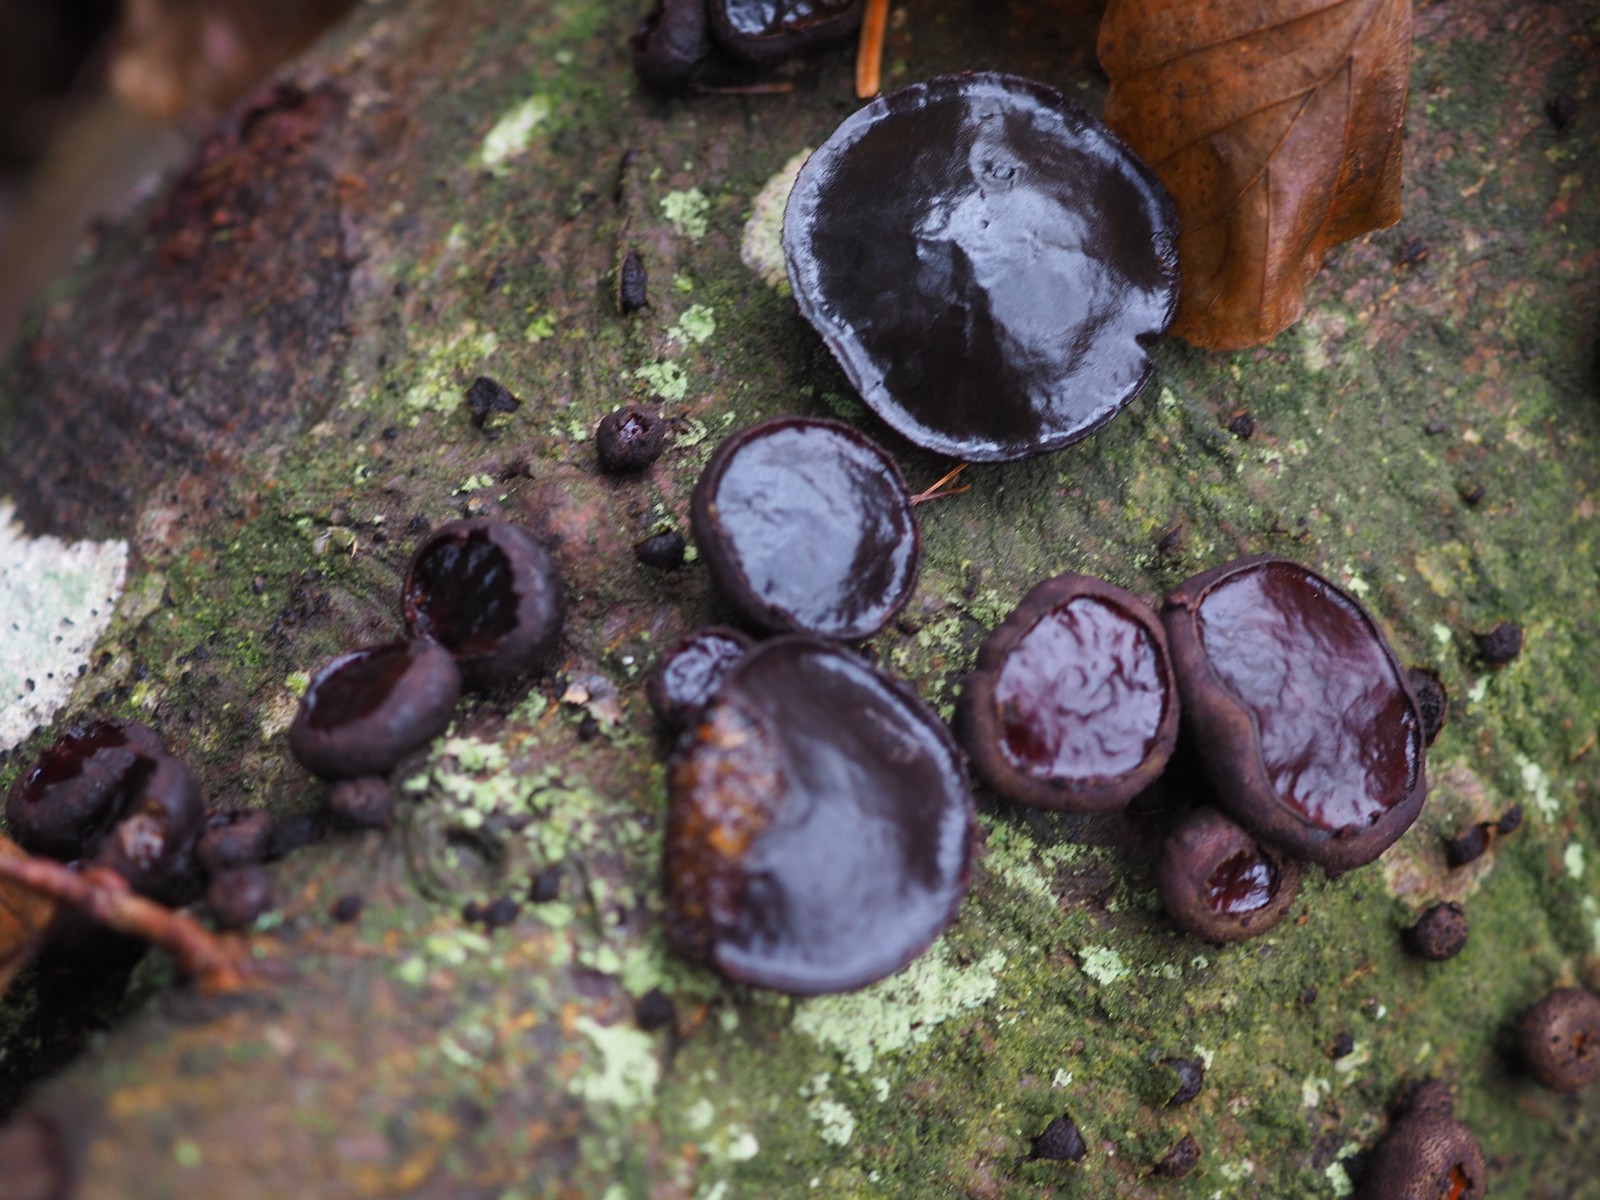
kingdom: Fungi
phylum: Ascomycota
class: Leotiomycetes
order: Phacidiales
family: Phacidiaceae
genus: Bulgaria
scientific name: Bulgaria inquinans
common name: afsmittende topsvamp
